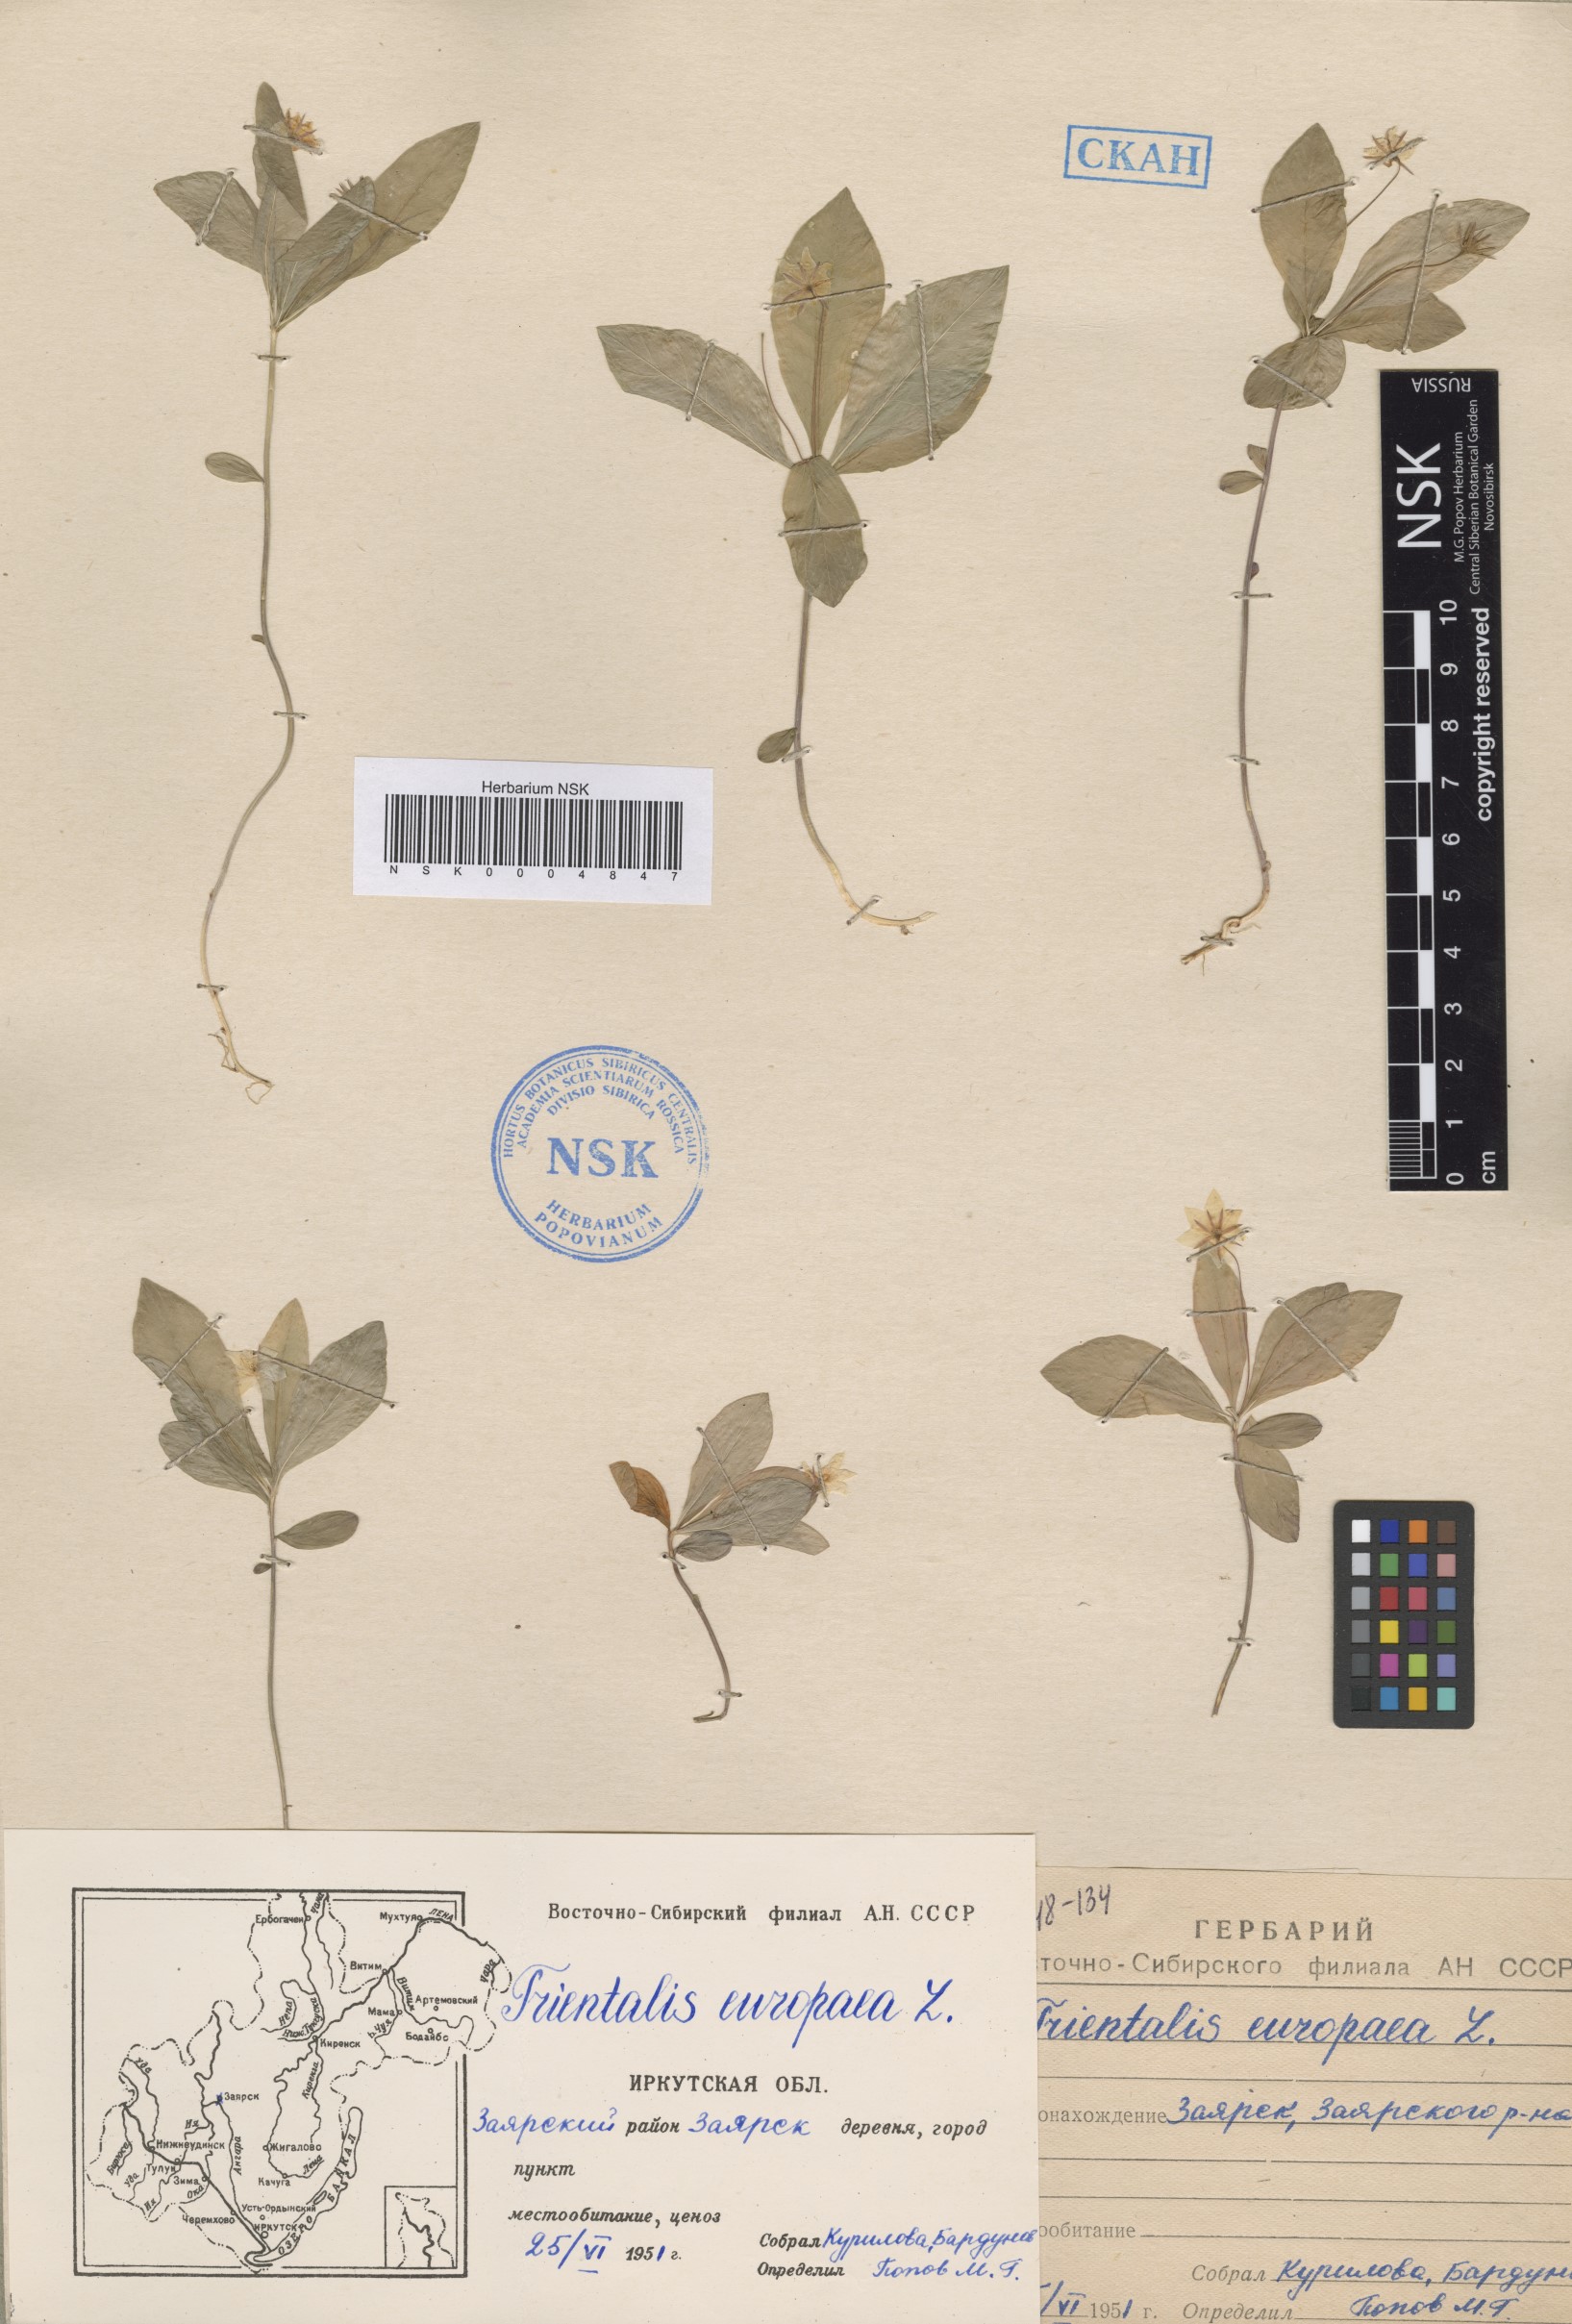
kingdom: Plantae
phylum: Tracheophyta
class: Magnoliopsida
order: Ericales
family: Primulaceae
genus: Lysimachia
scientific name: Lysimachia europaea
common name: Arctic starflower
